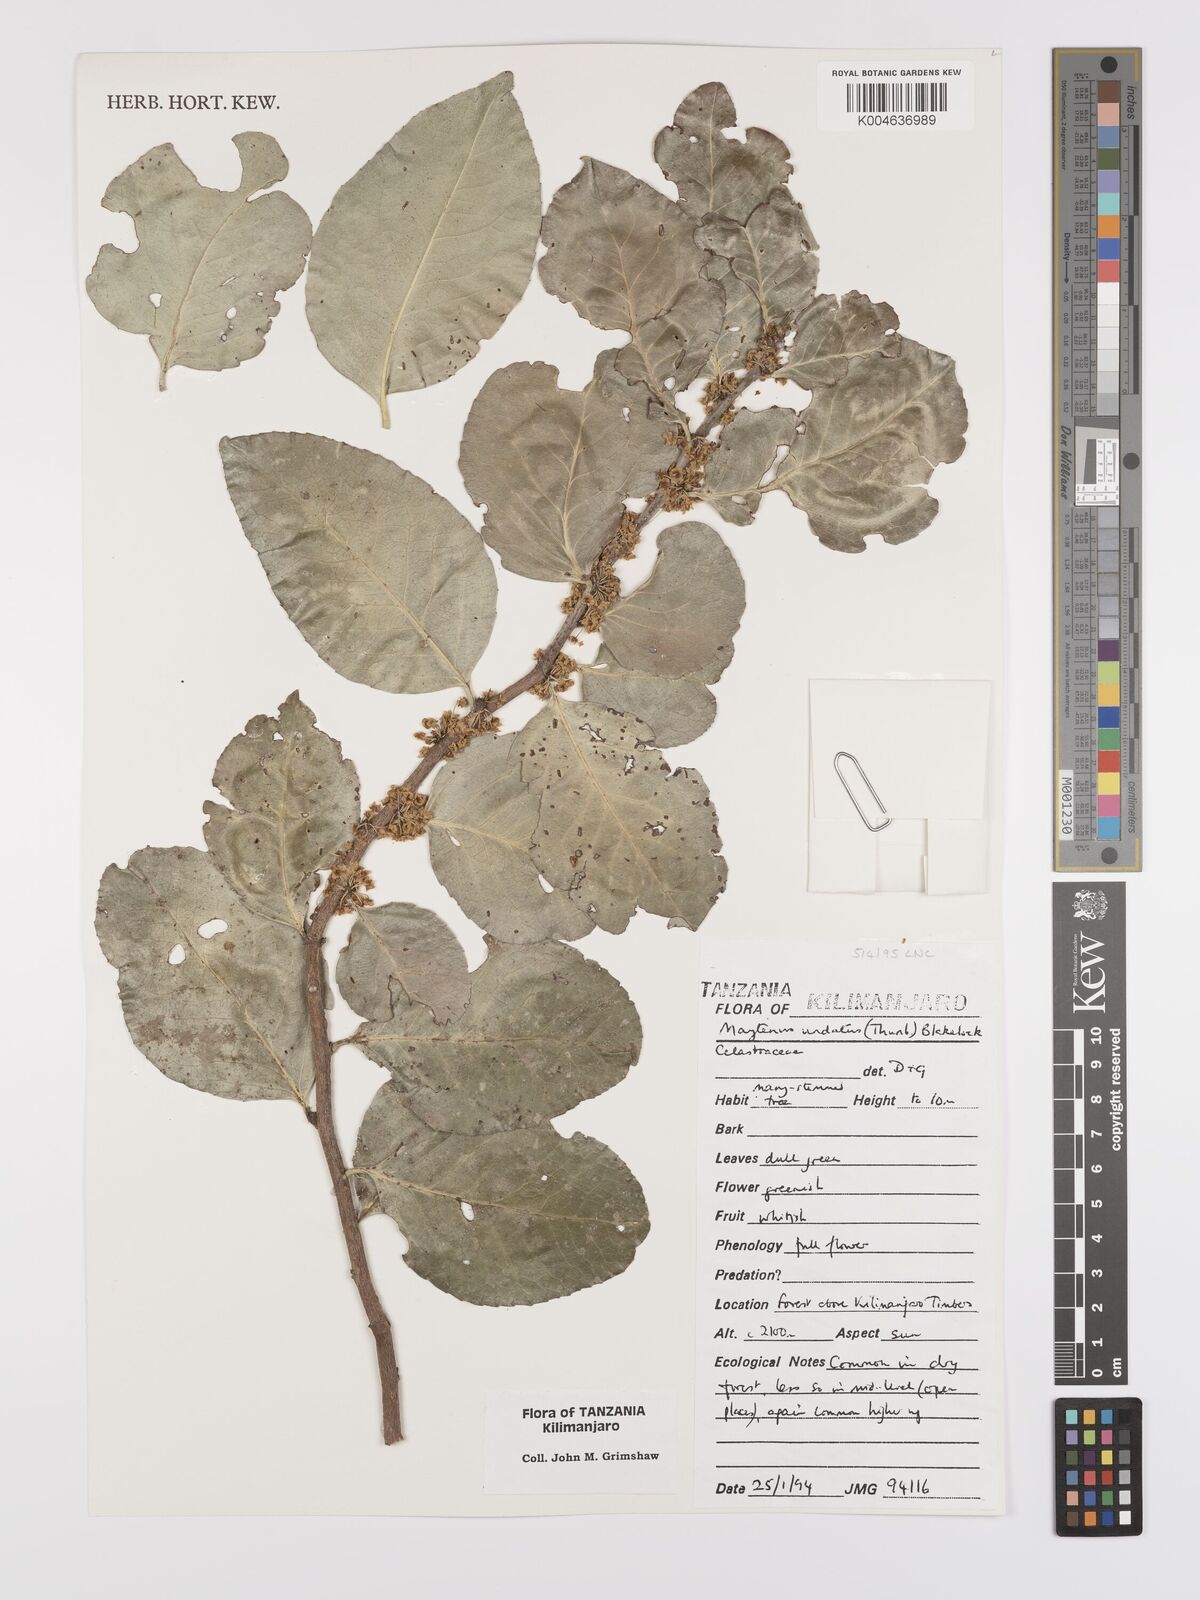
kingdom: Plantae
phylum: Tracheophyta
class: Magnoliopsida
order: Celastrales
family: Celastraceae
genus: Gymnosporia
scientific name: Gymnosporia undata
